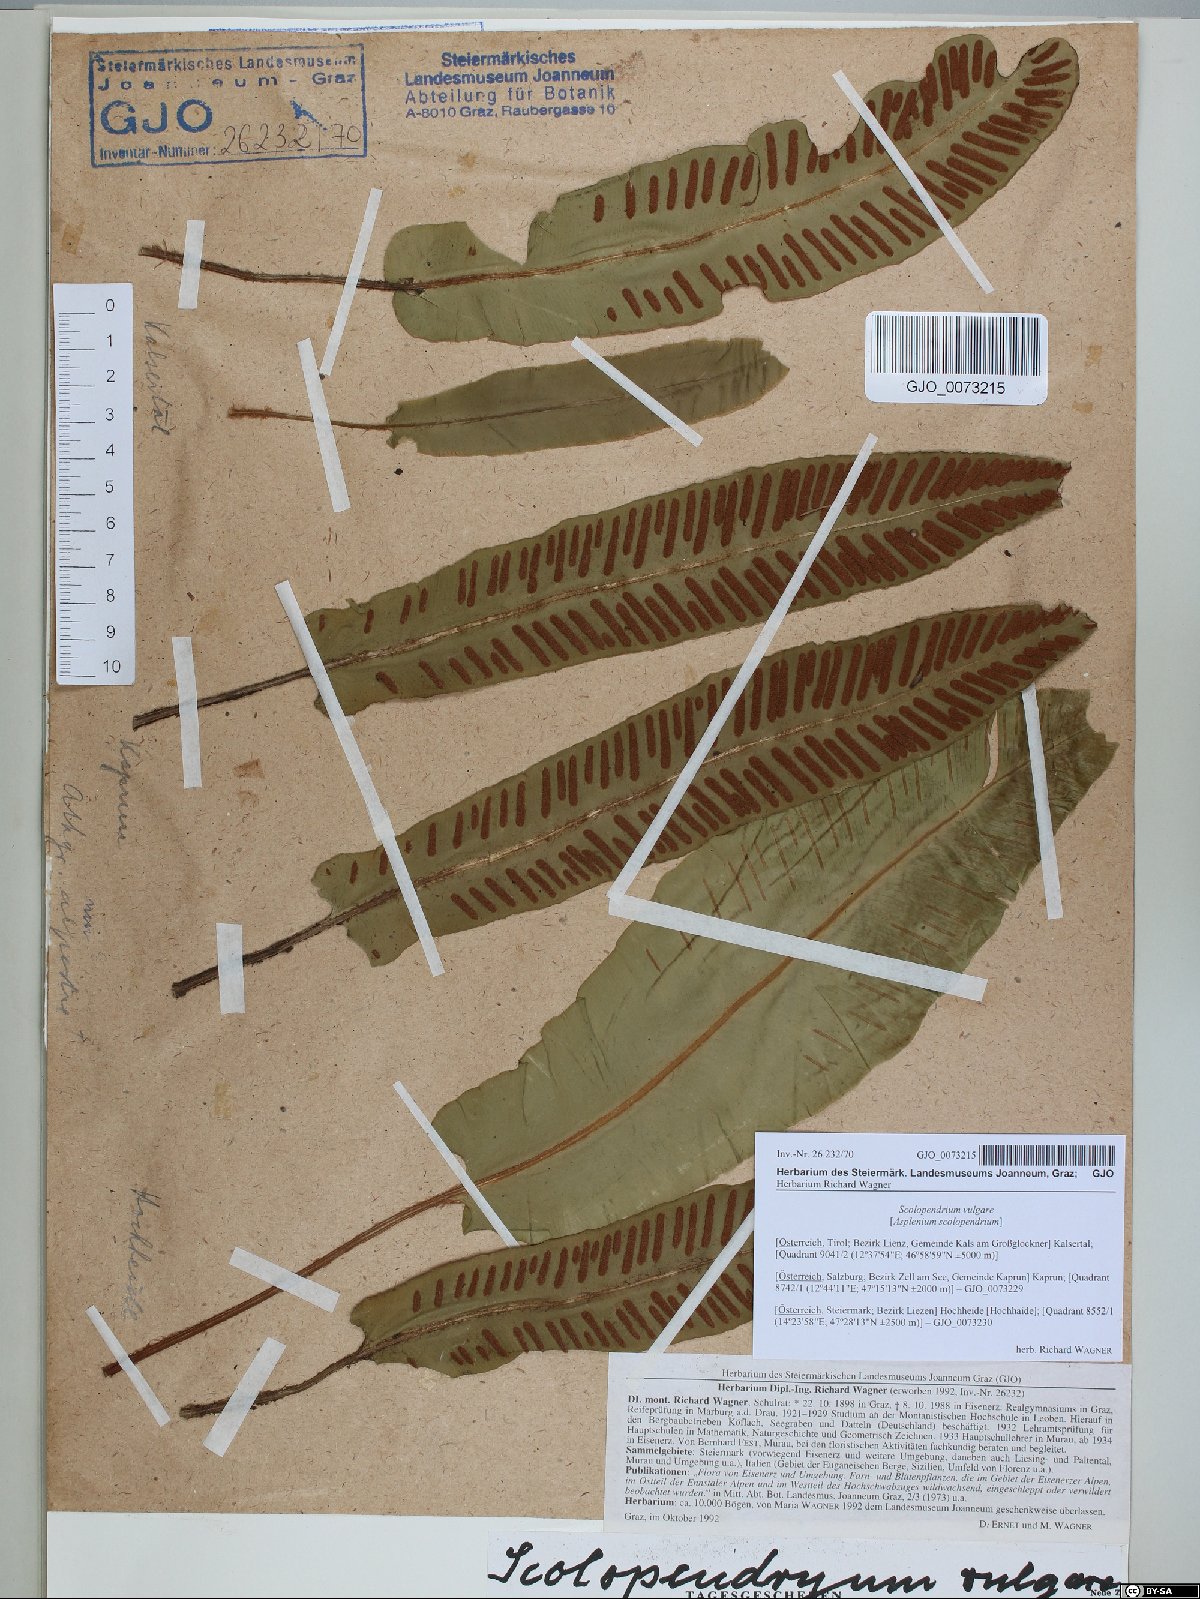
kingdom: Plantae
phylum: Tracheophyta
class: Polypodiopsida
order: Polypodiales
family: Aspleniaceae
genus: Asplenium
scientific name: Asplenium scolopendrium
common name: Hart's-tongue fern
